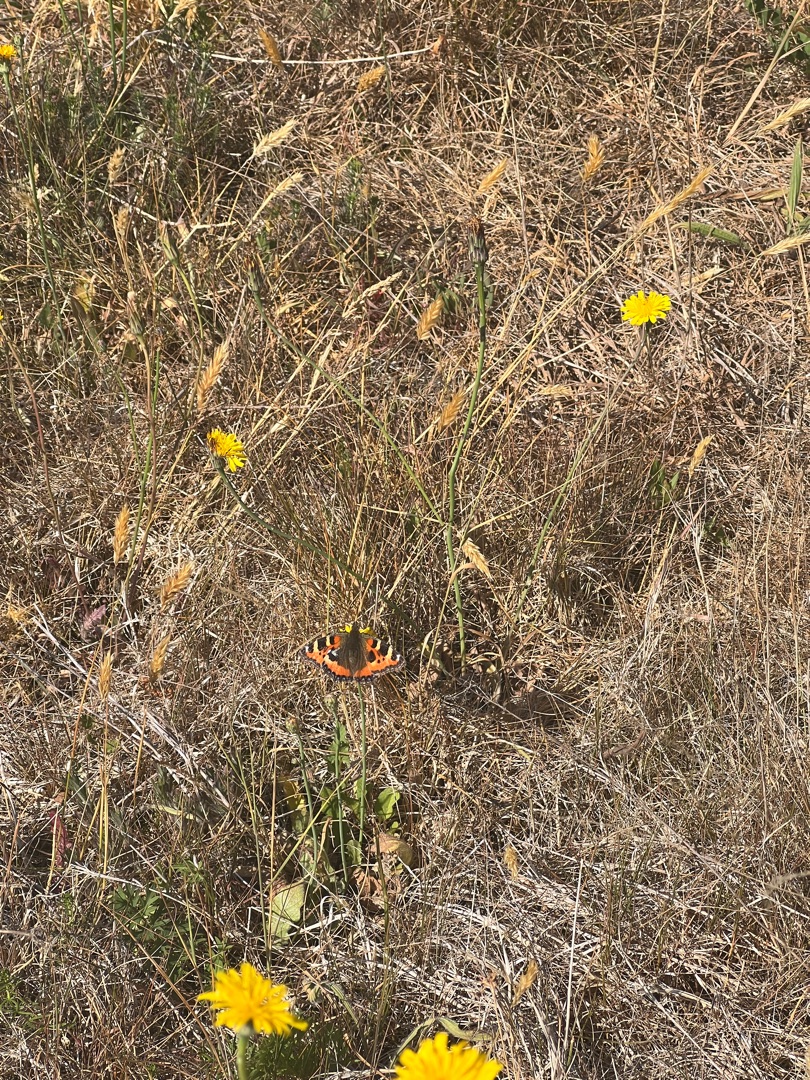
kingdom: Animalia
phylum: Arthropoda
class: Insecta
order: Lepidoptera
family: Nymphalidae
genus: Aglais
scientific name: Aglais urticae
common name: Nældens takvinge
